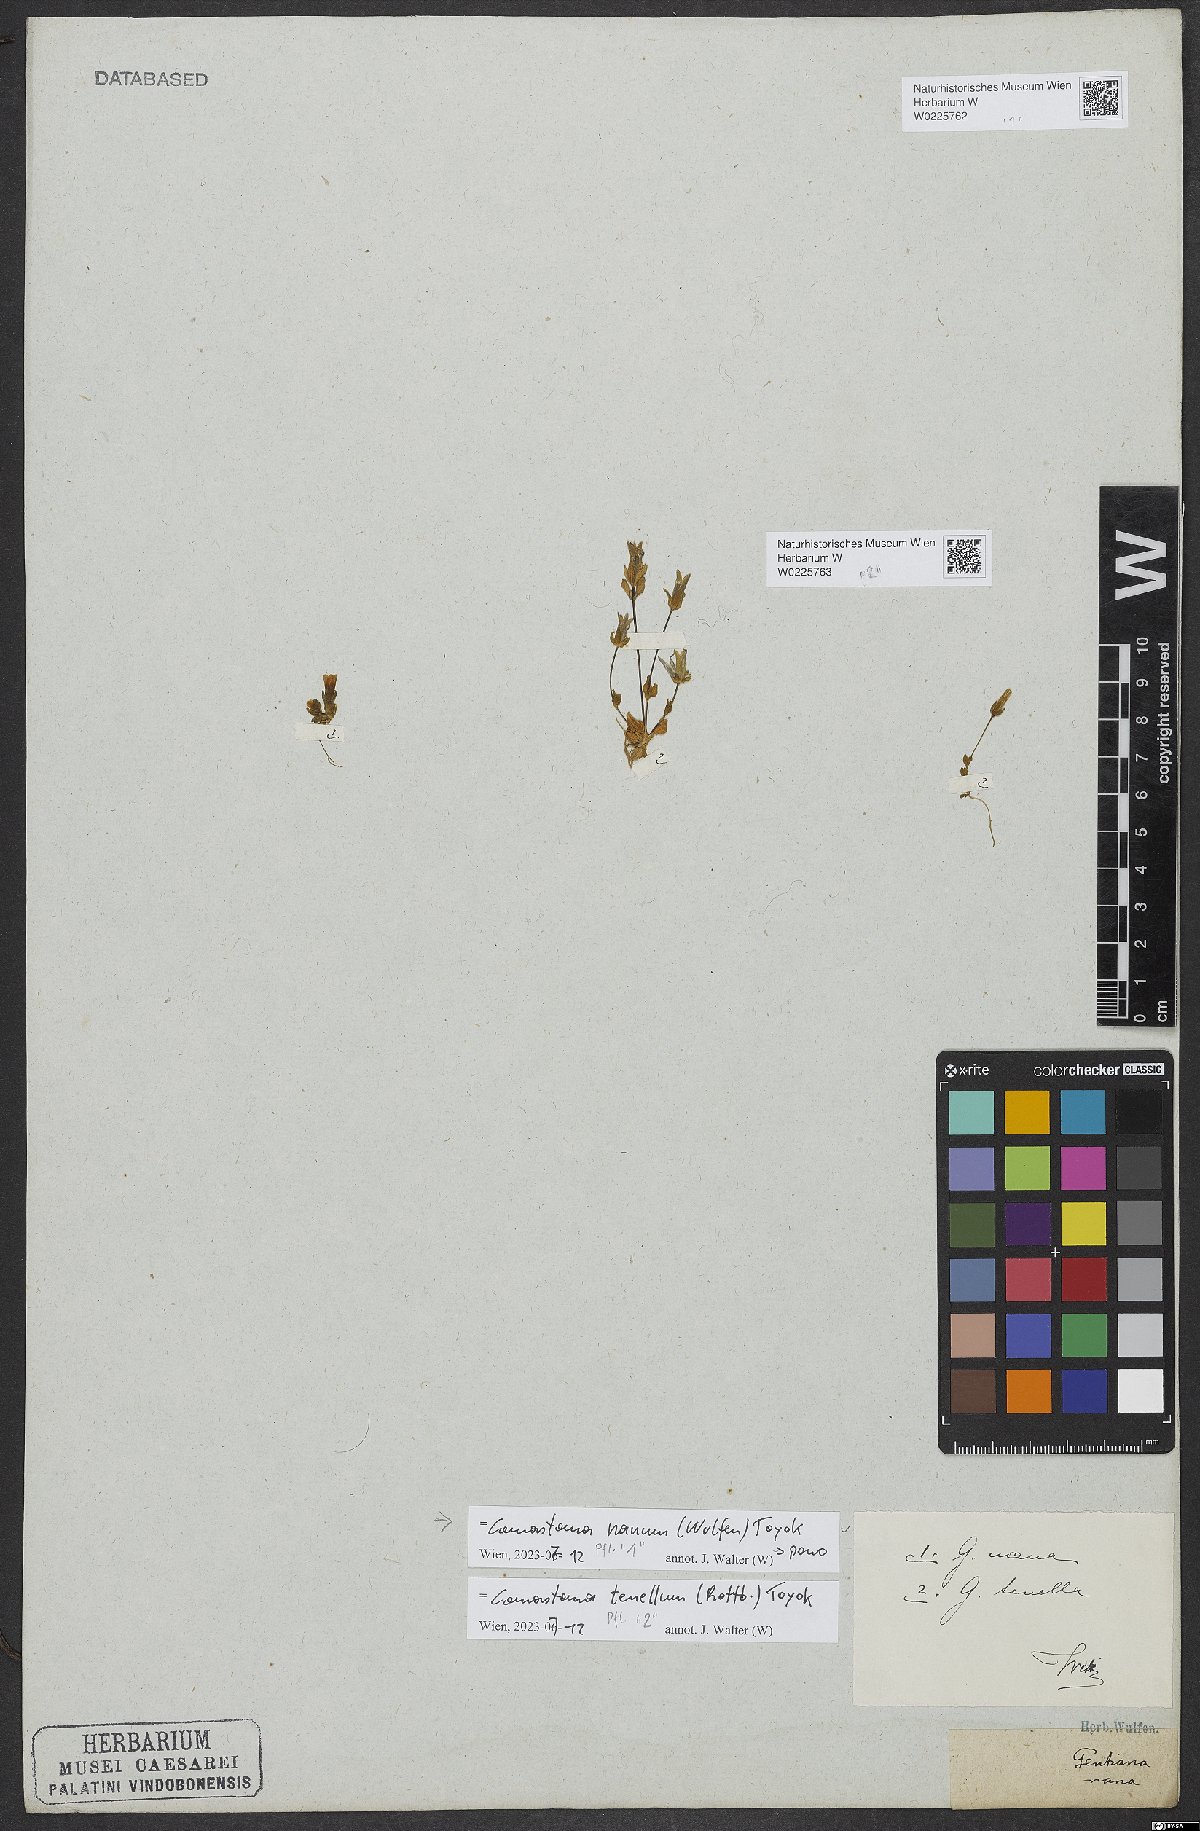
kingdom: Plantae
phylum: Tracheophyta
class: Magnoliopsida
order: Gentianales
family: Gentianaceae
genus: Comastoma
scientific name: Comastoma nanum
